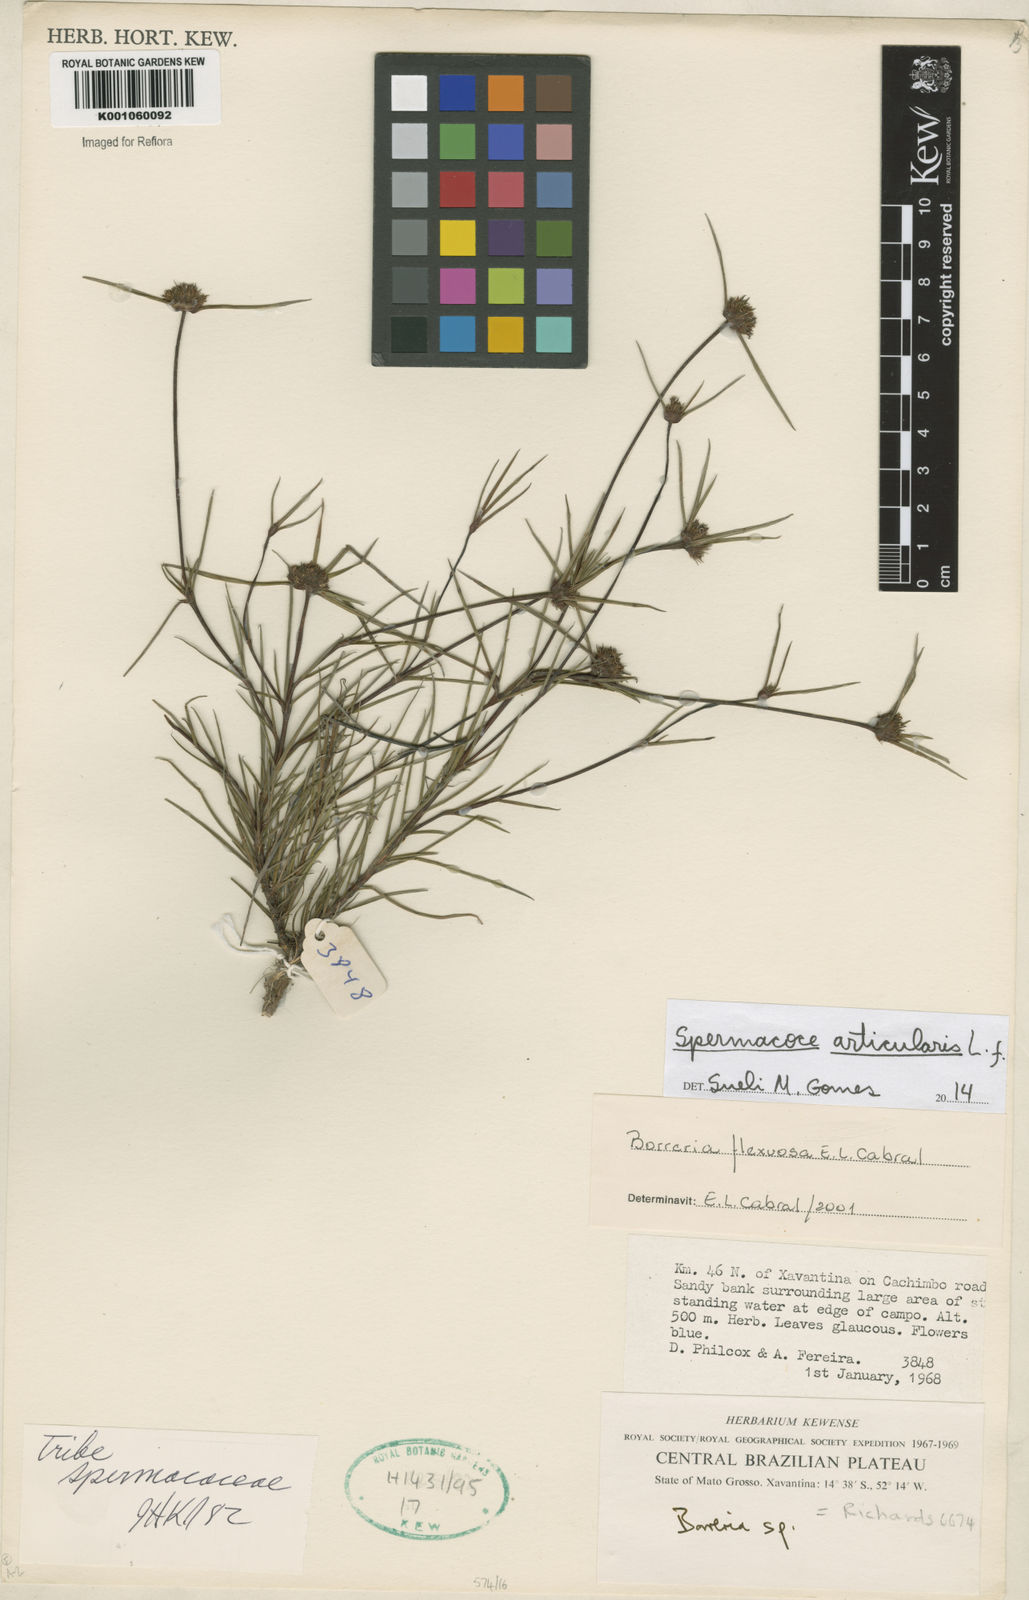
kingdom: Plantae
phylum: Tracheophyta
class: Magnoliopsida
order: Gentianales
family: Rubiaceae
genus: Spermacoce
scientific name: Spermacoce scabiosoides
